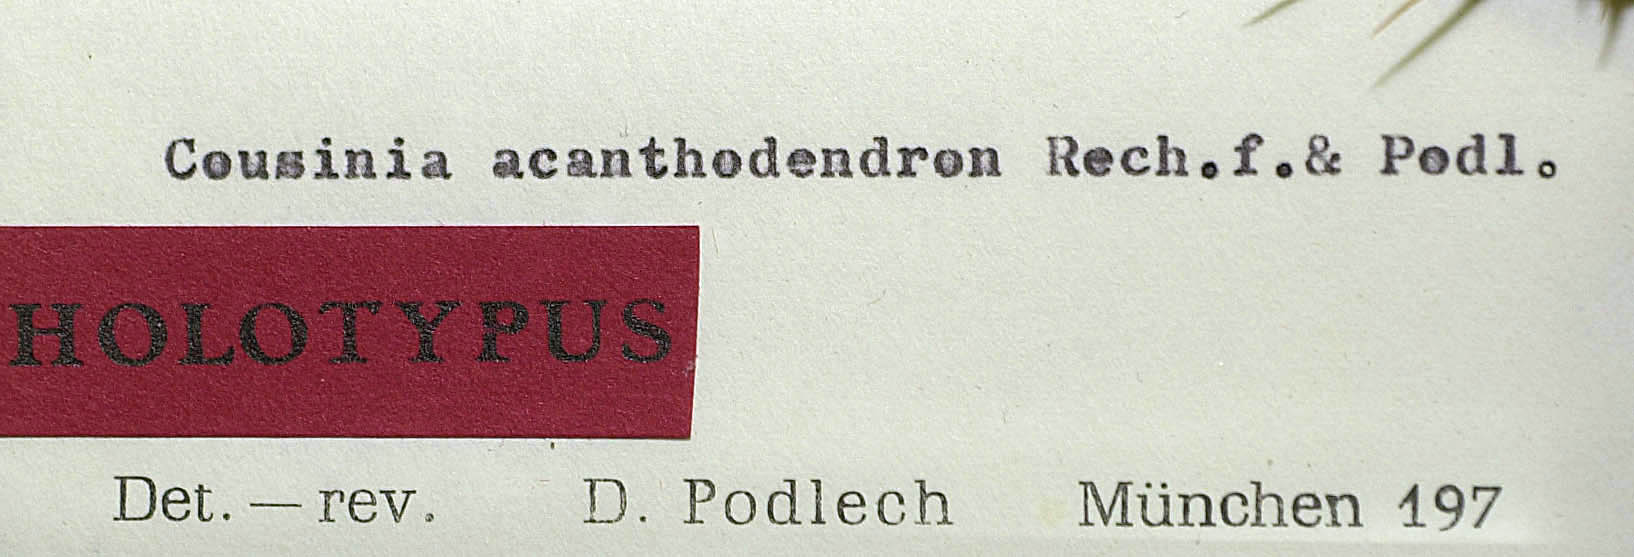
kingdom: Plantae
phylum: Tracheophyta
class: Magnoliopsida
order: Asterales
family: Asteraceae
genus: Cousinia
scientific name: Cousinia acanthodendron
